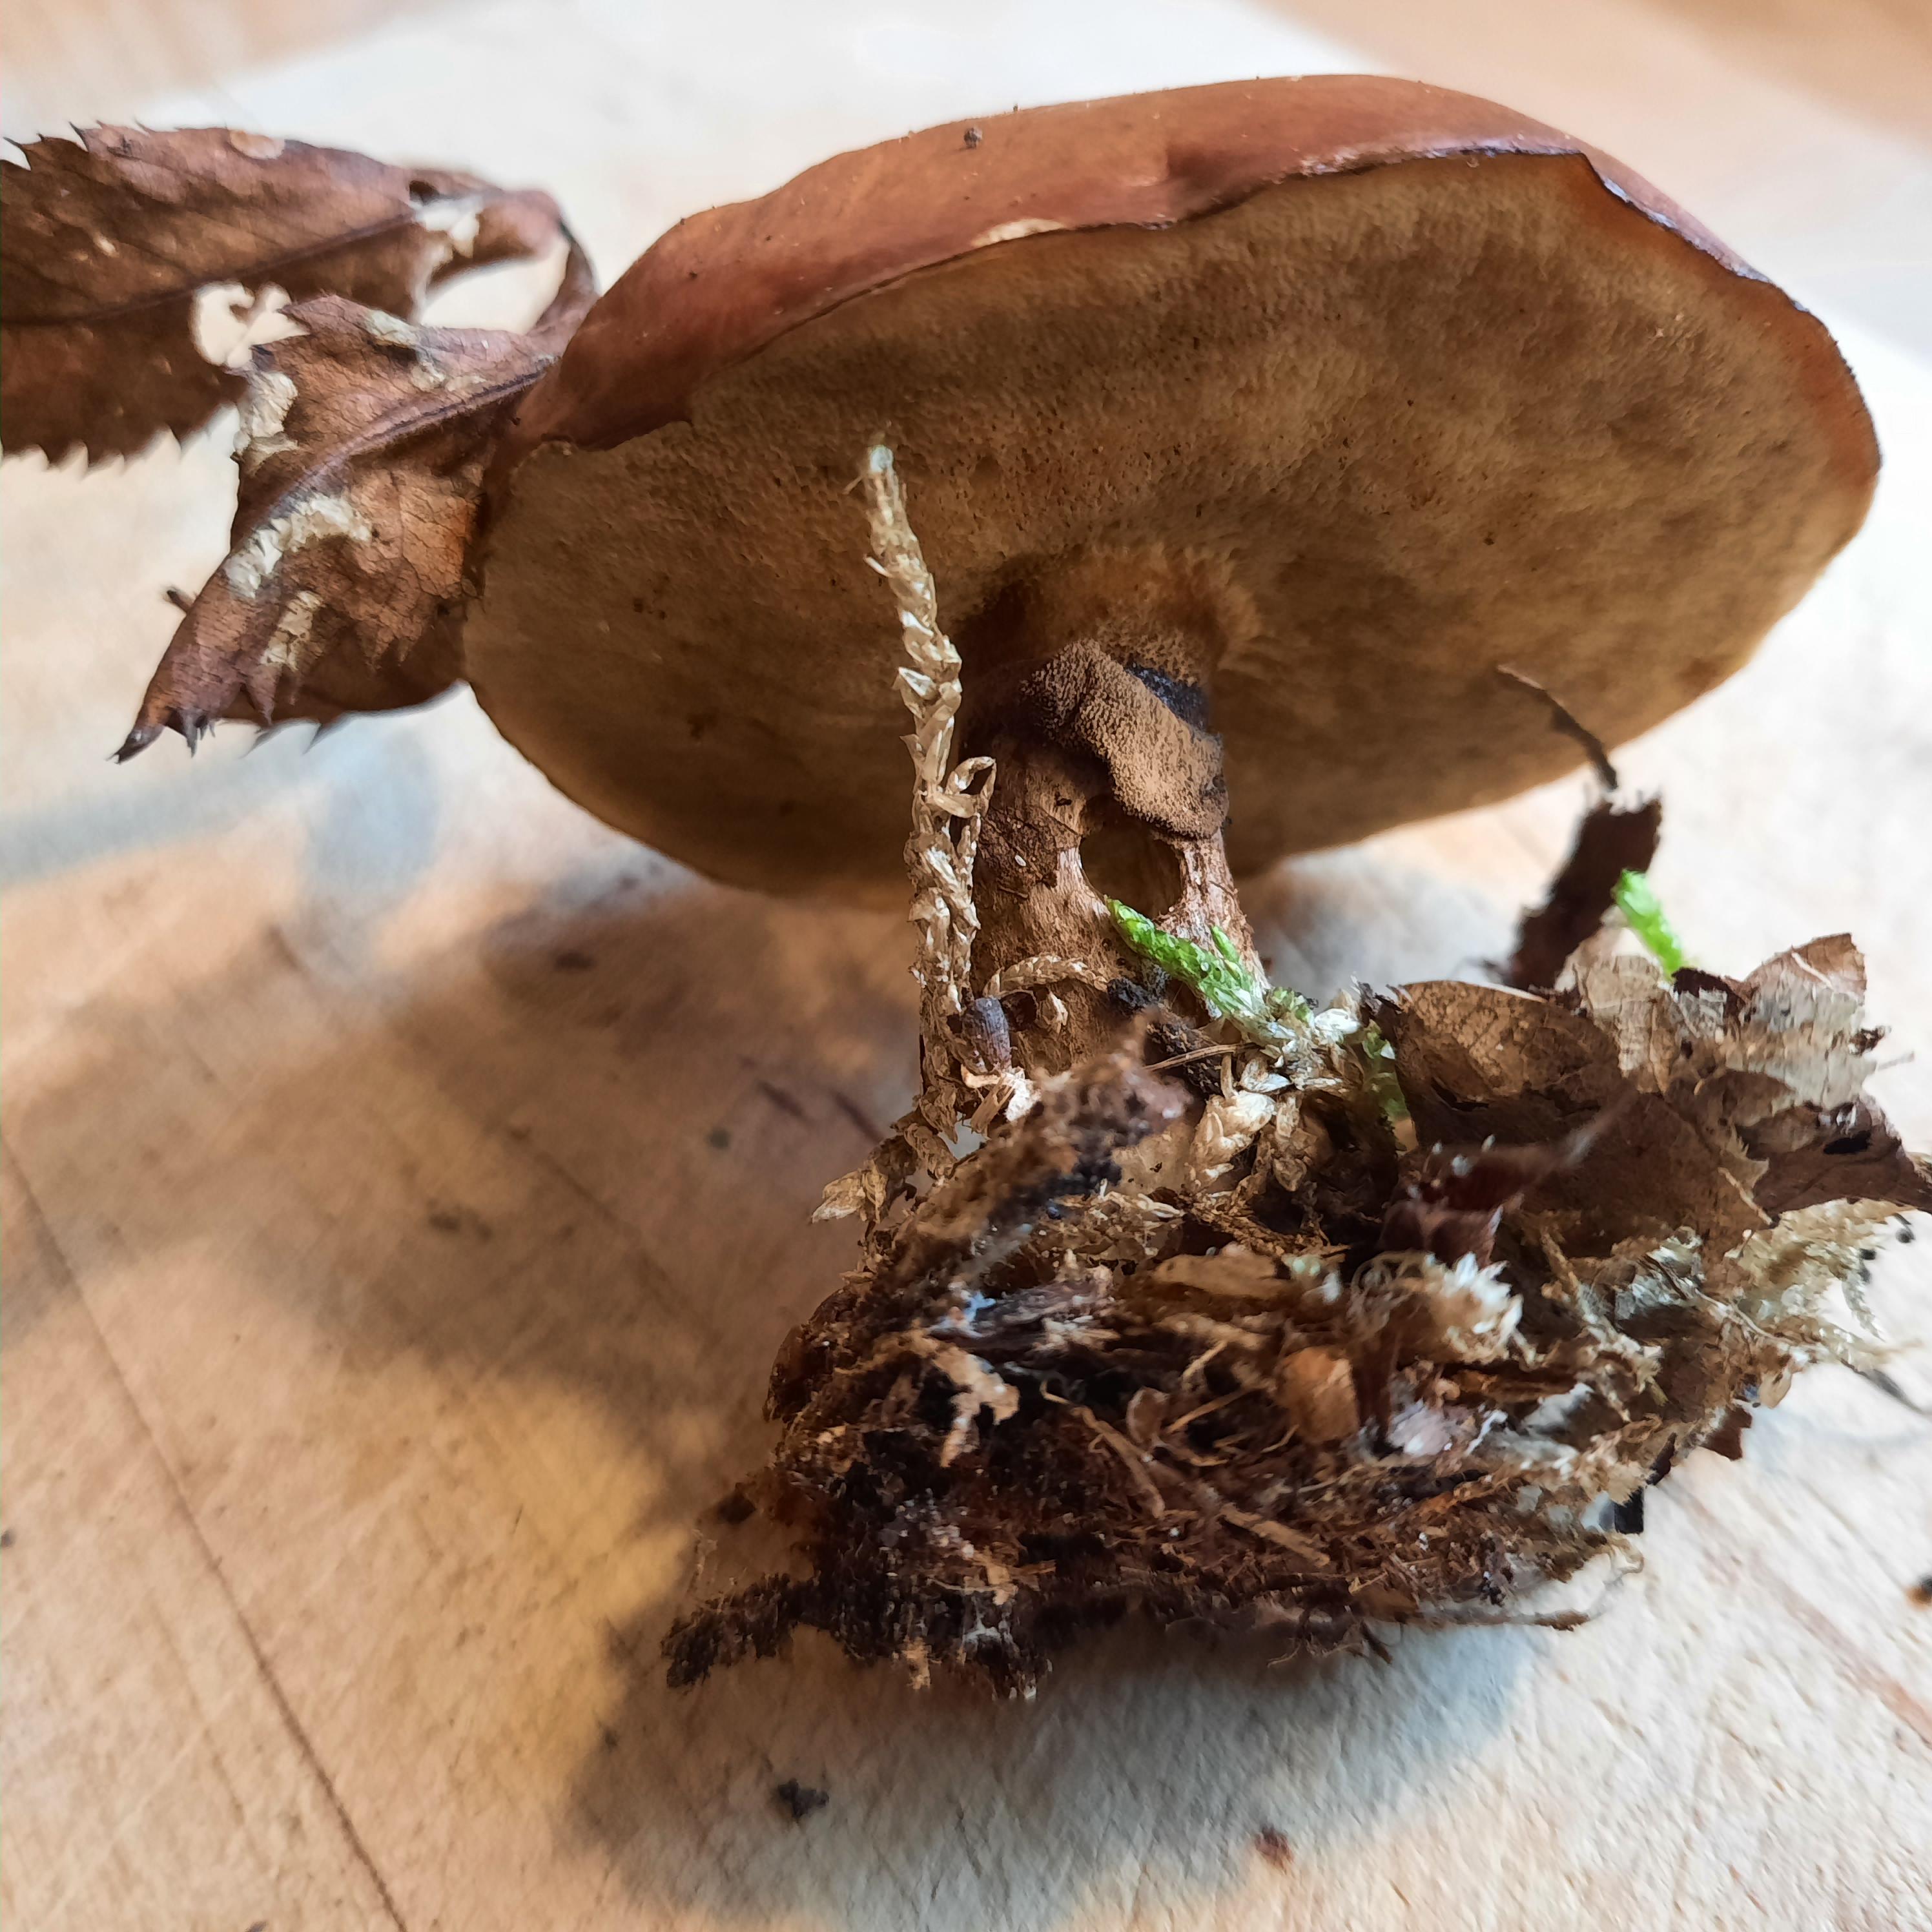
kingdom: Fungi
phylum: Basidiomycota
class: Agaricomycetes
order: Boletales
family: Suillaceae
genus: Suillus
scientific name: Suillus luteus
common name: brungul slimrørhat
